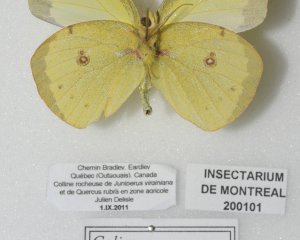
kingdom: Animalia
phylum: Arthropoda
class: Insecta
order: Lepidoptera
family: Pieridae
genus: Colias
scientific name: Colias philodice
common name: Clouded Sulphur
